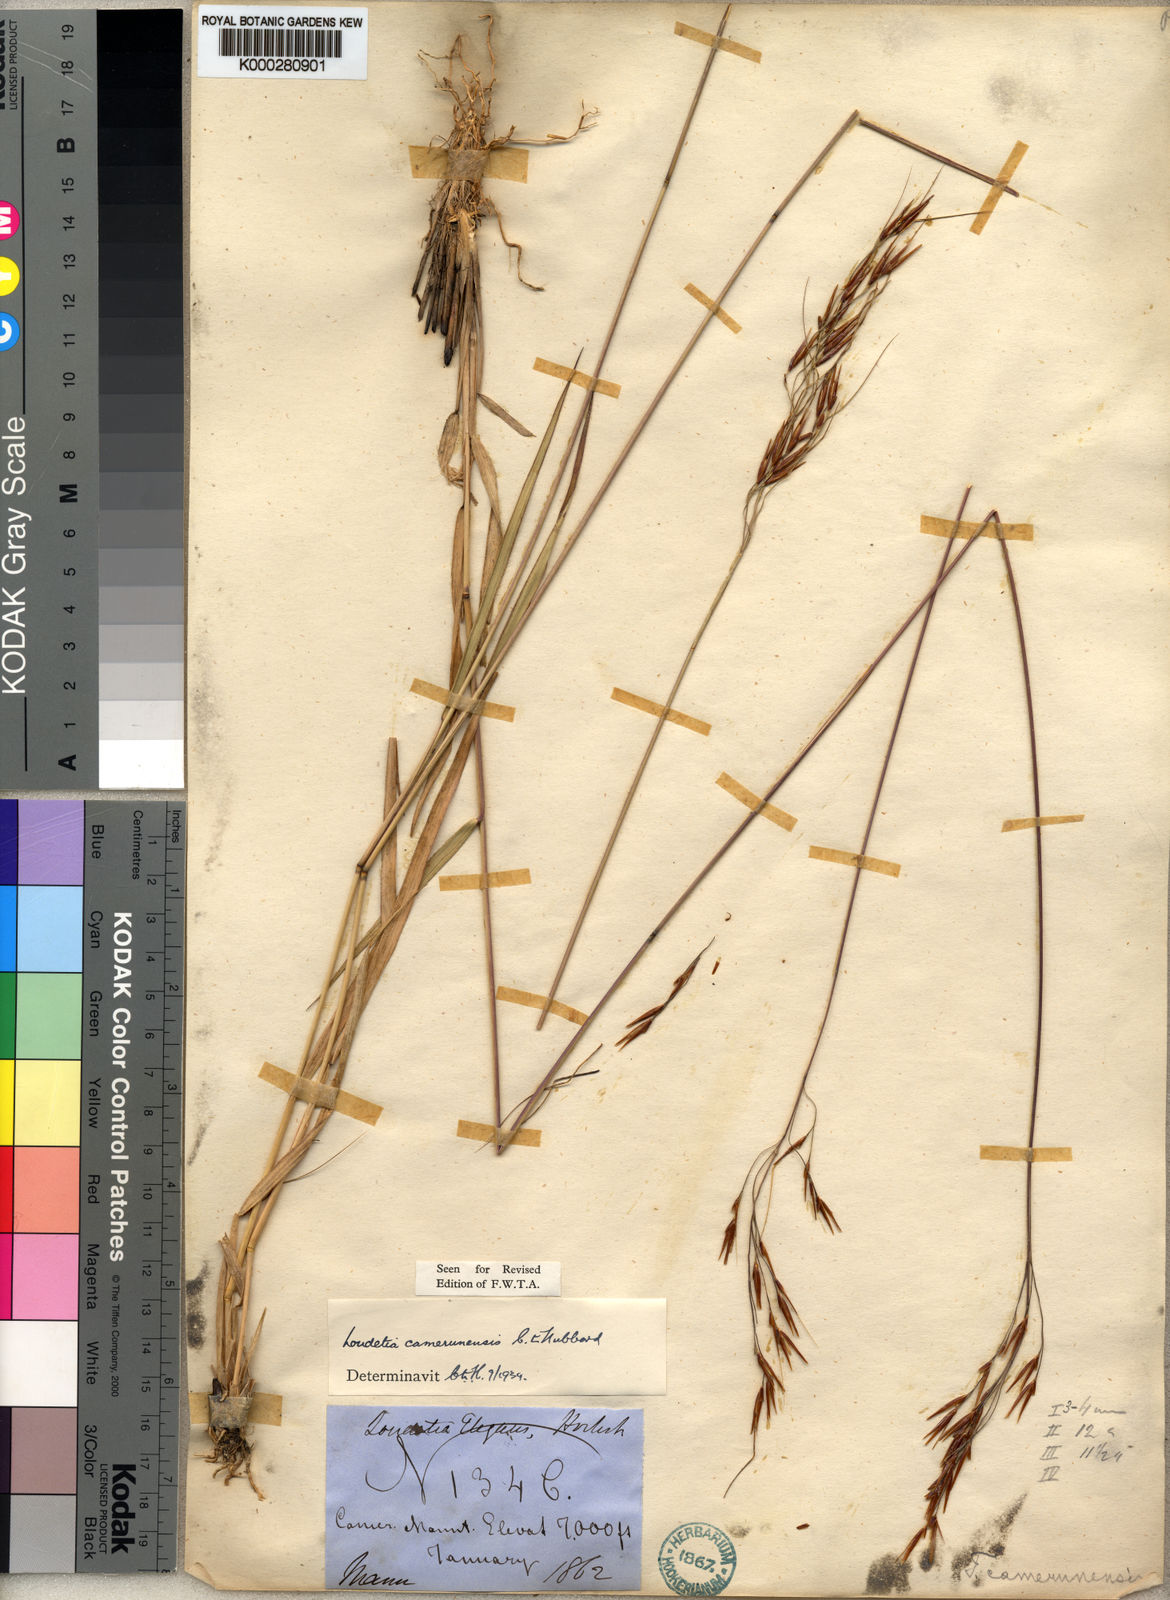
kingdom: Plantae
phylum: Tracheophyta
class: Liliopsida
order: Poales
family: Poaceae
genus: Loudetia
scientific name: Loudetia simplex
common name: Common russet grass
